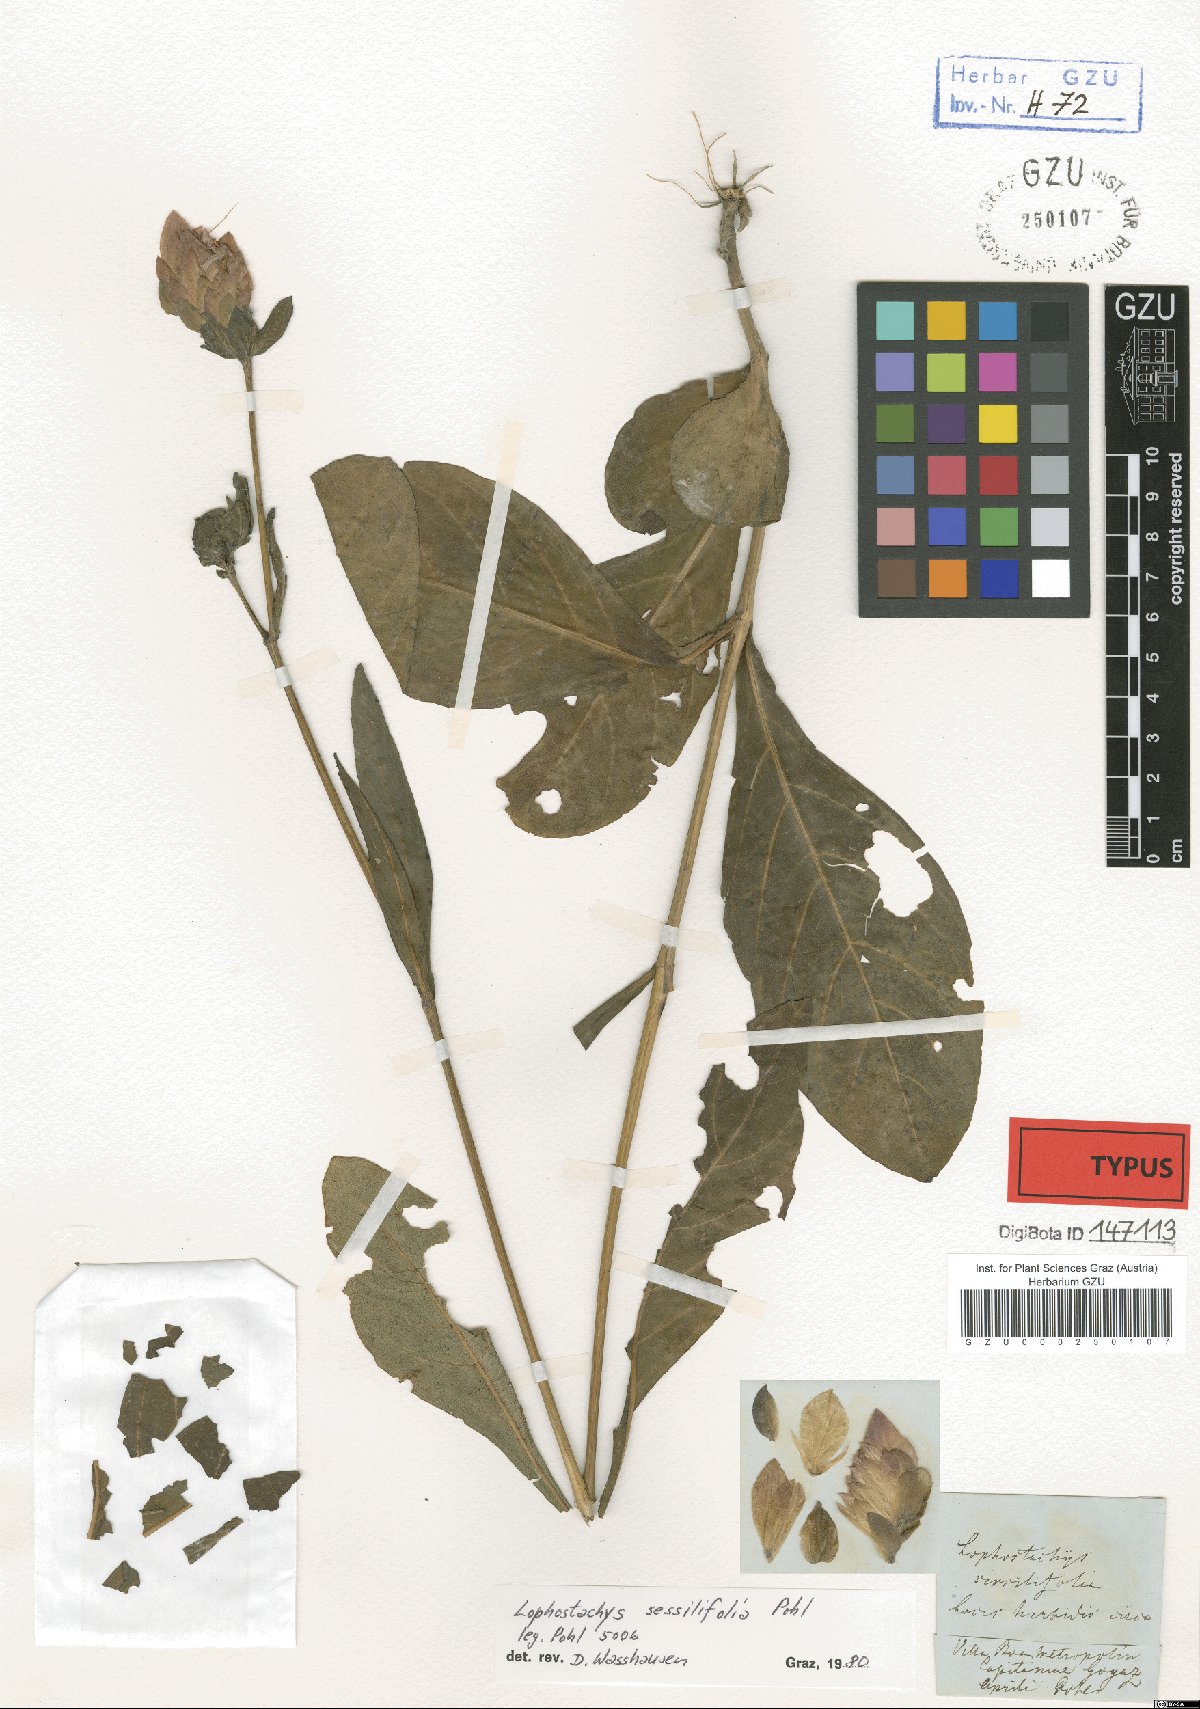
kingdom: Plantae
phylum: Tracheophyta
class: Magnoliopsida
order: Lamiales
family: Acanthaceae
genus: Lepidagathis
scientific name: Lepidagathis sessilifolia
